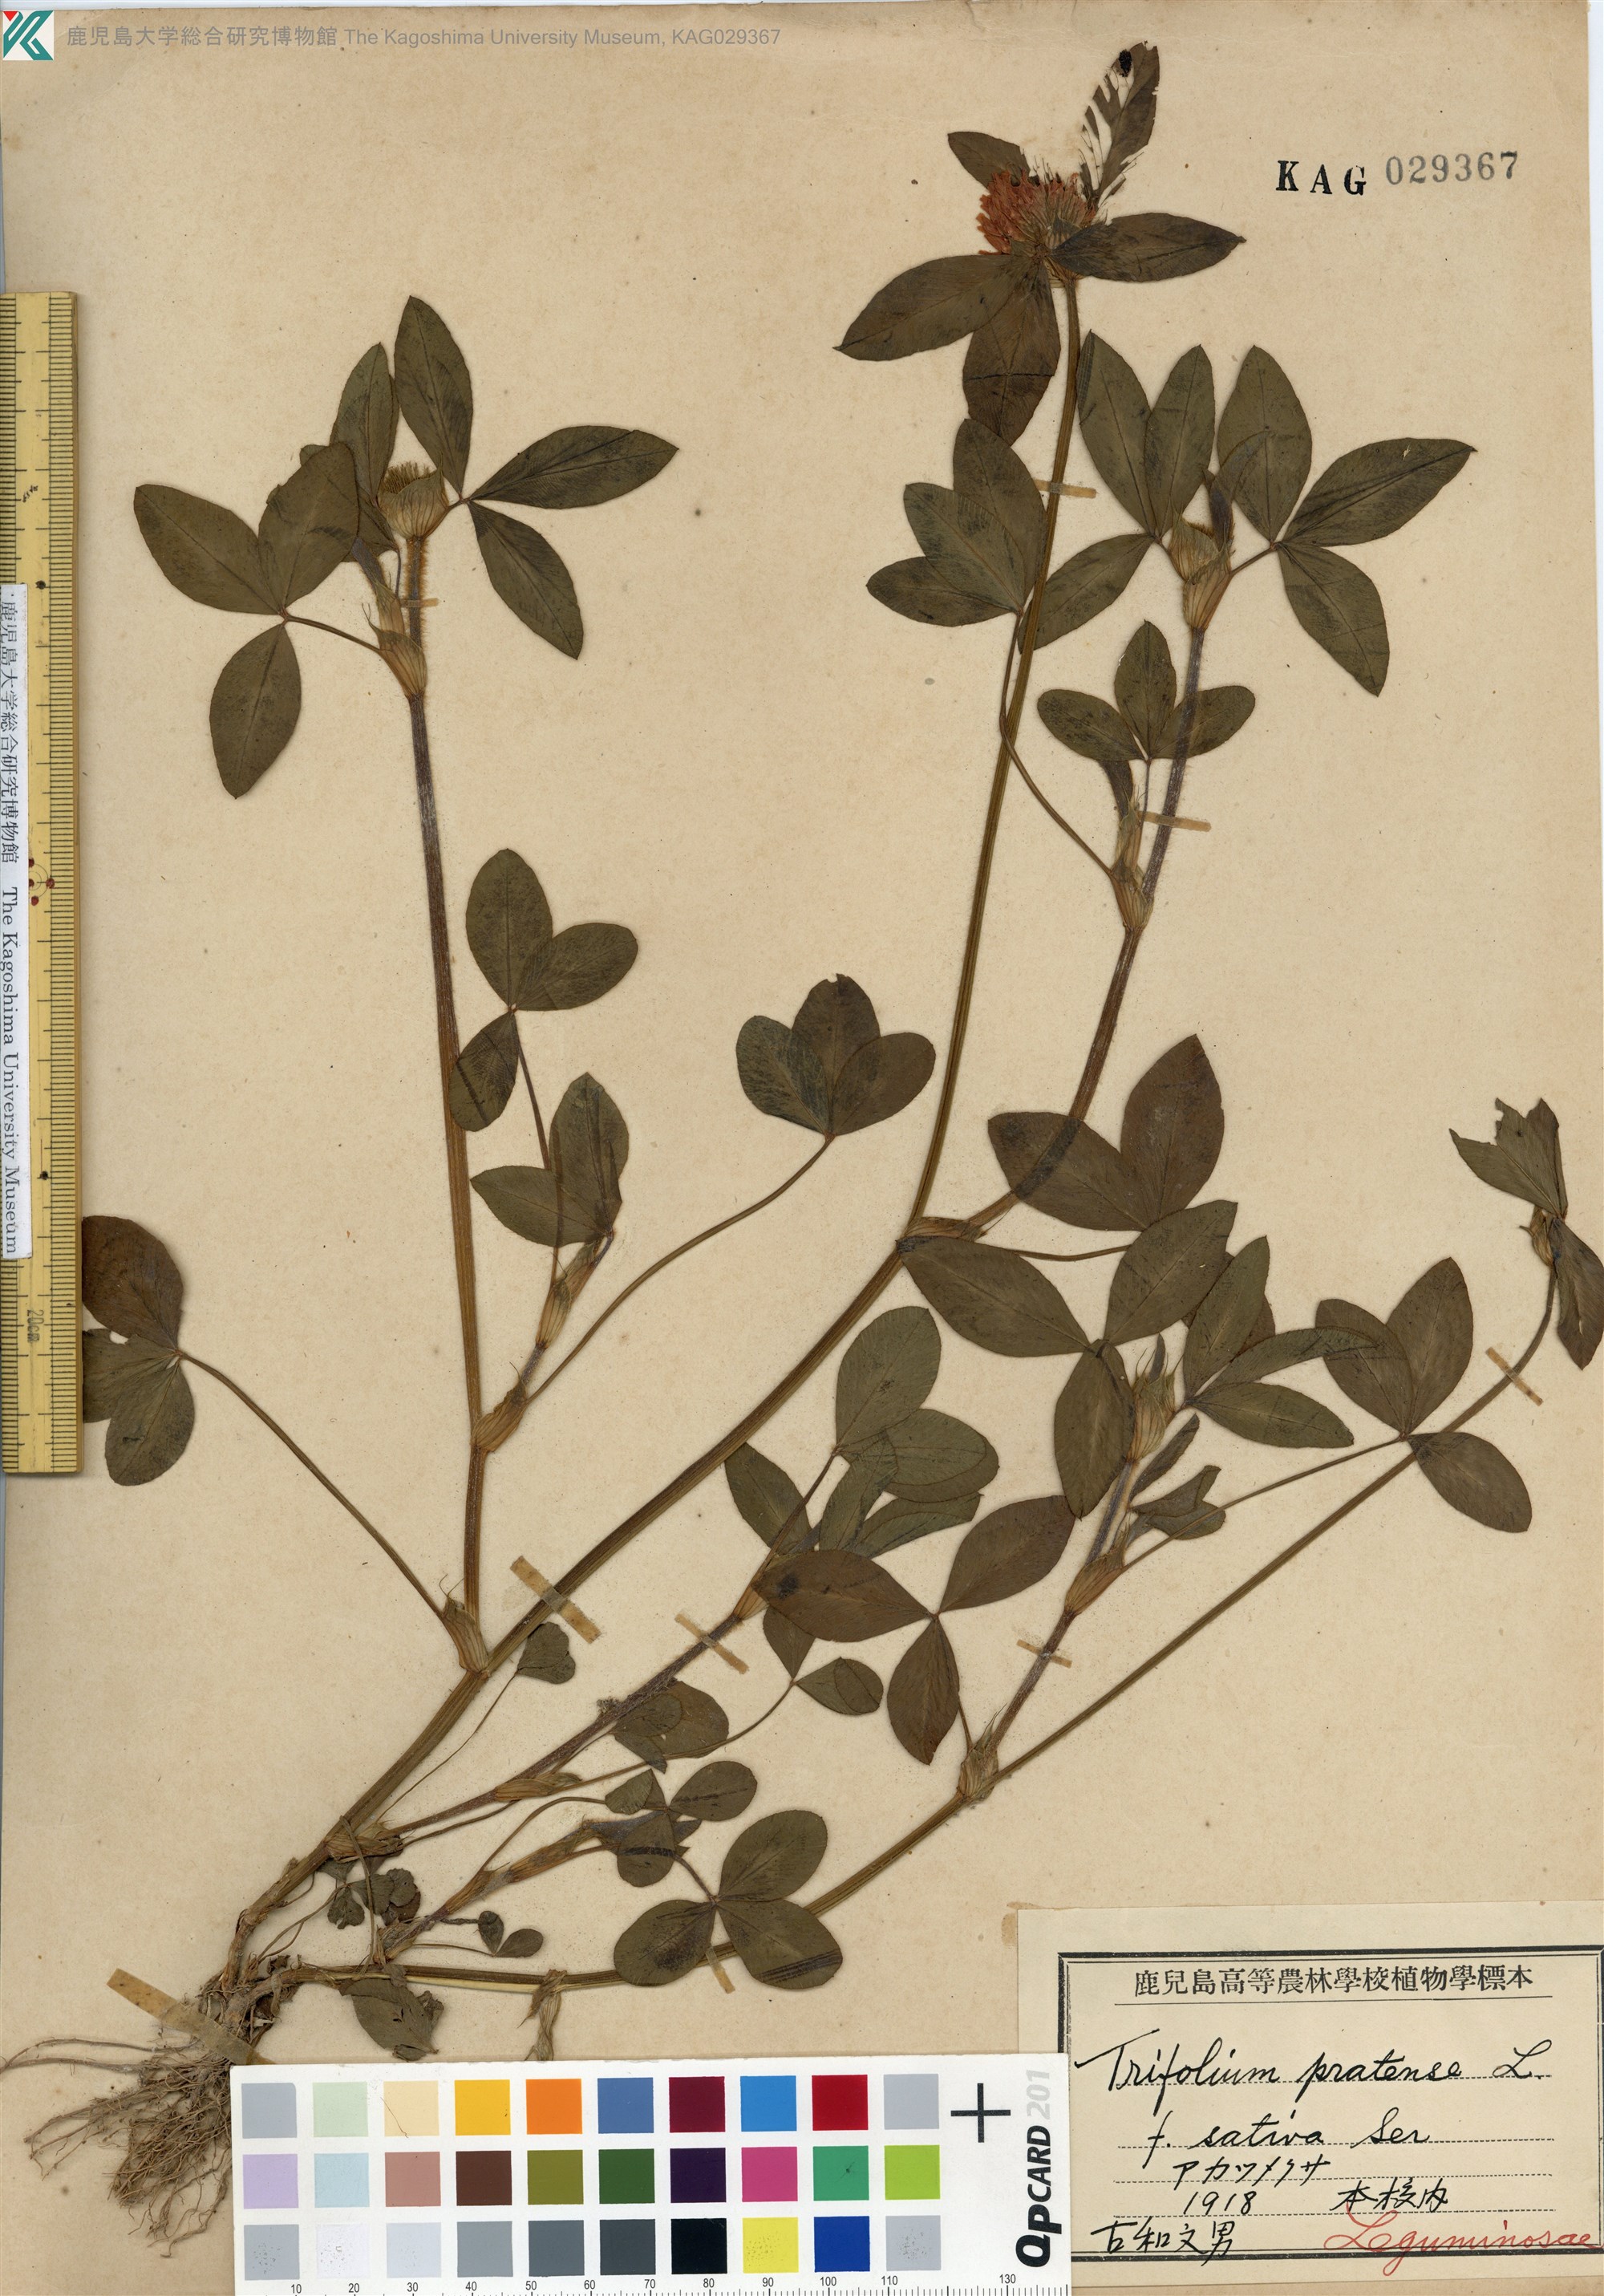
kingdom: Plantae
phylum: Tracheophyta
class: Magnoliopsida
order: Fabales
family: Fabaceae
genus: Trifolium
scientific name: Trifolium pratense
